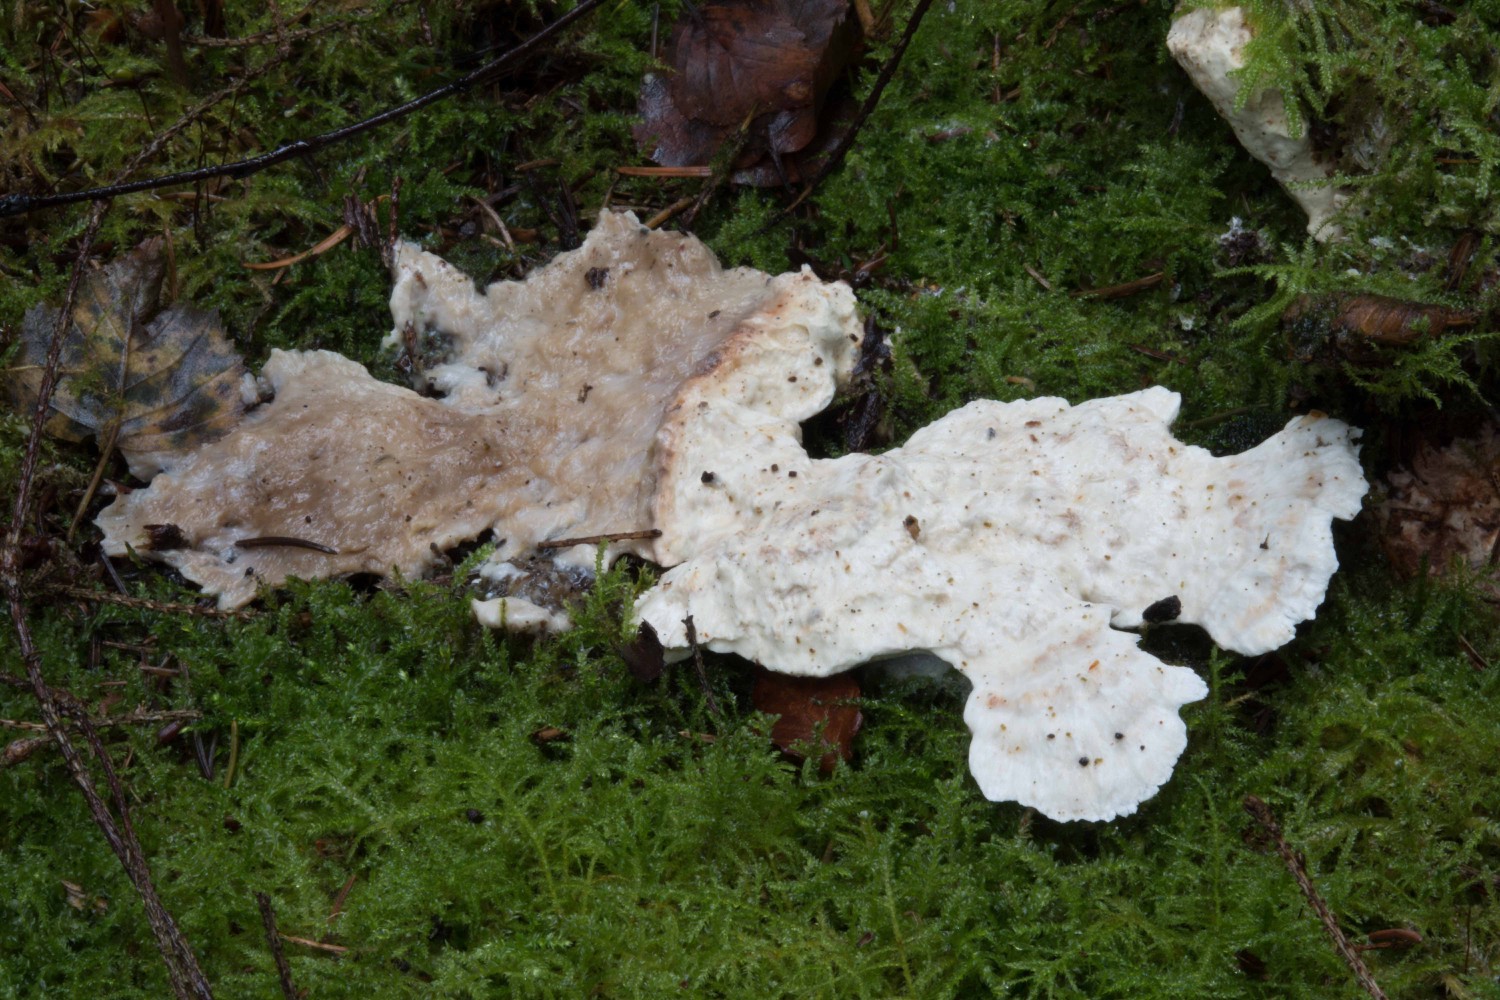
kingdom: Fungi
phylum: Basidiomycota
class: Agaricomycetes
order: Polyporales
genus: Calcipostia
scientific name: Calcipostia guttulata
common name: dråbe-kødporesvamp
